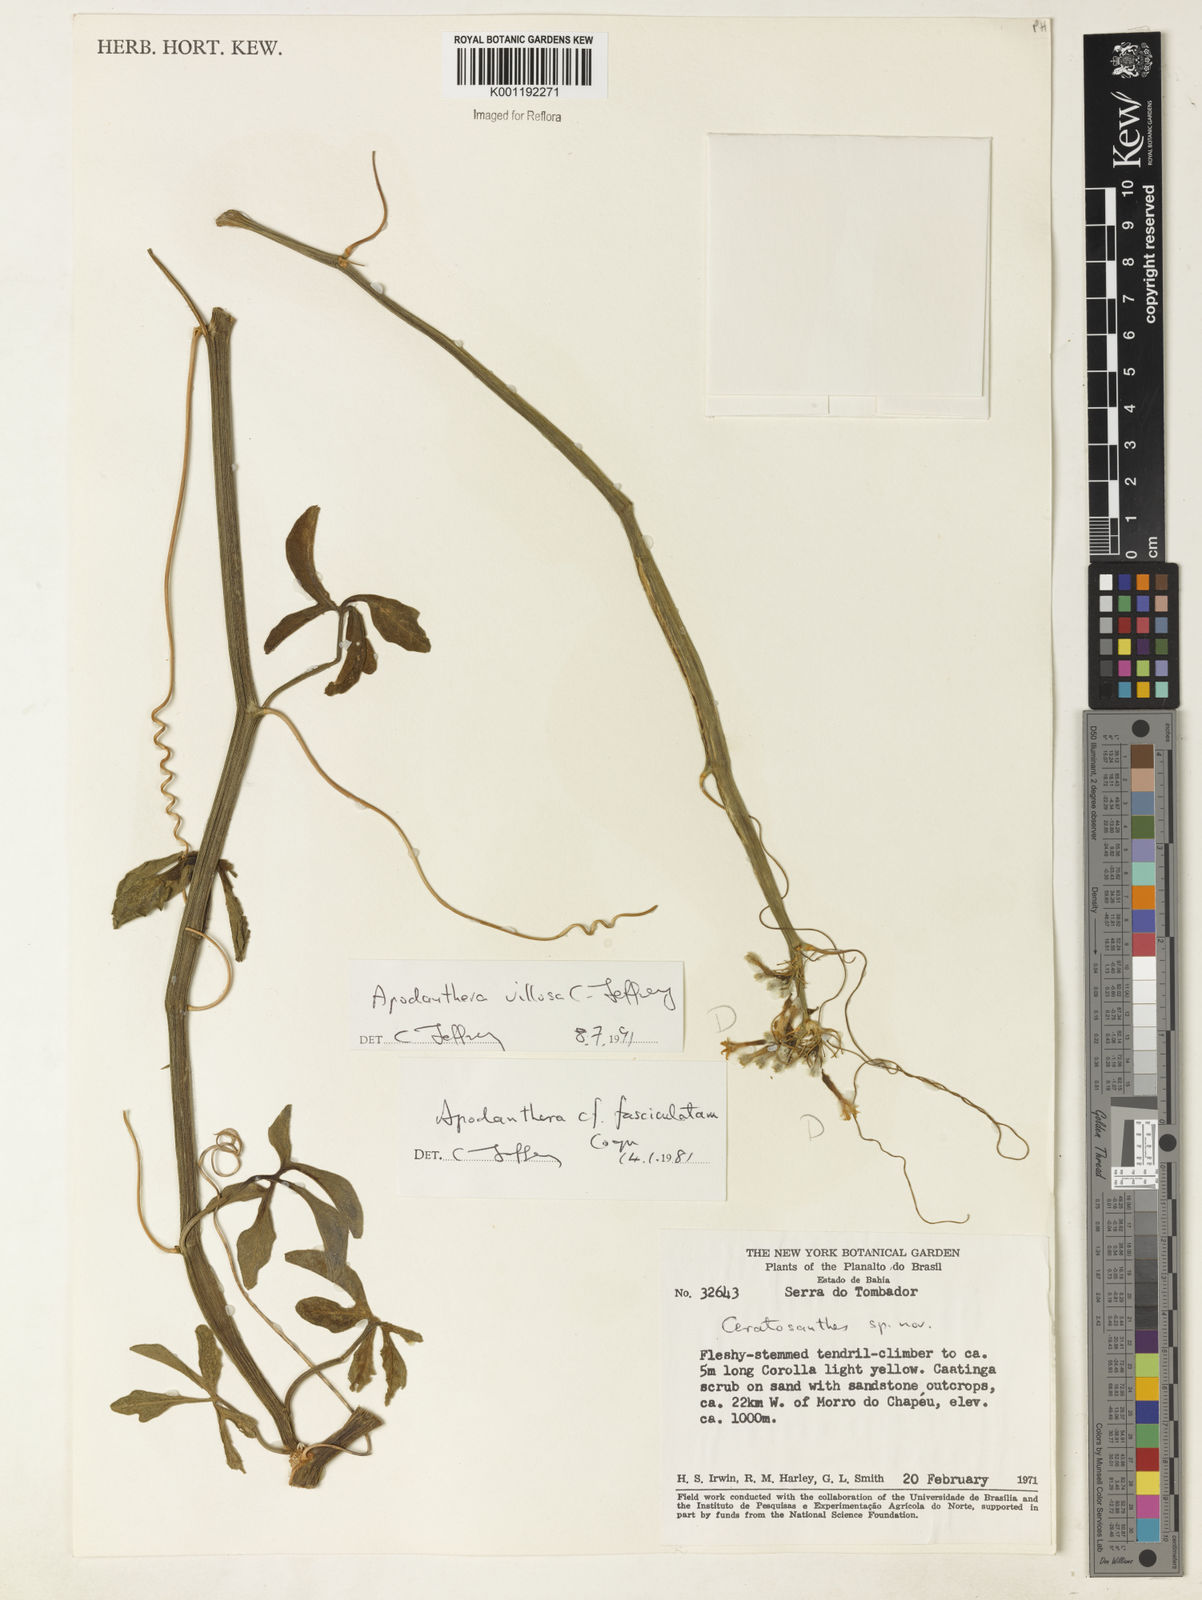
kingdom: Plantae
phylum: Tracheophyta
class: Magnoliopsida
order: Cucurbitales
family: Cucurbitaceae
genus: Apodanthera
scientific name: Apodanthera villosa
